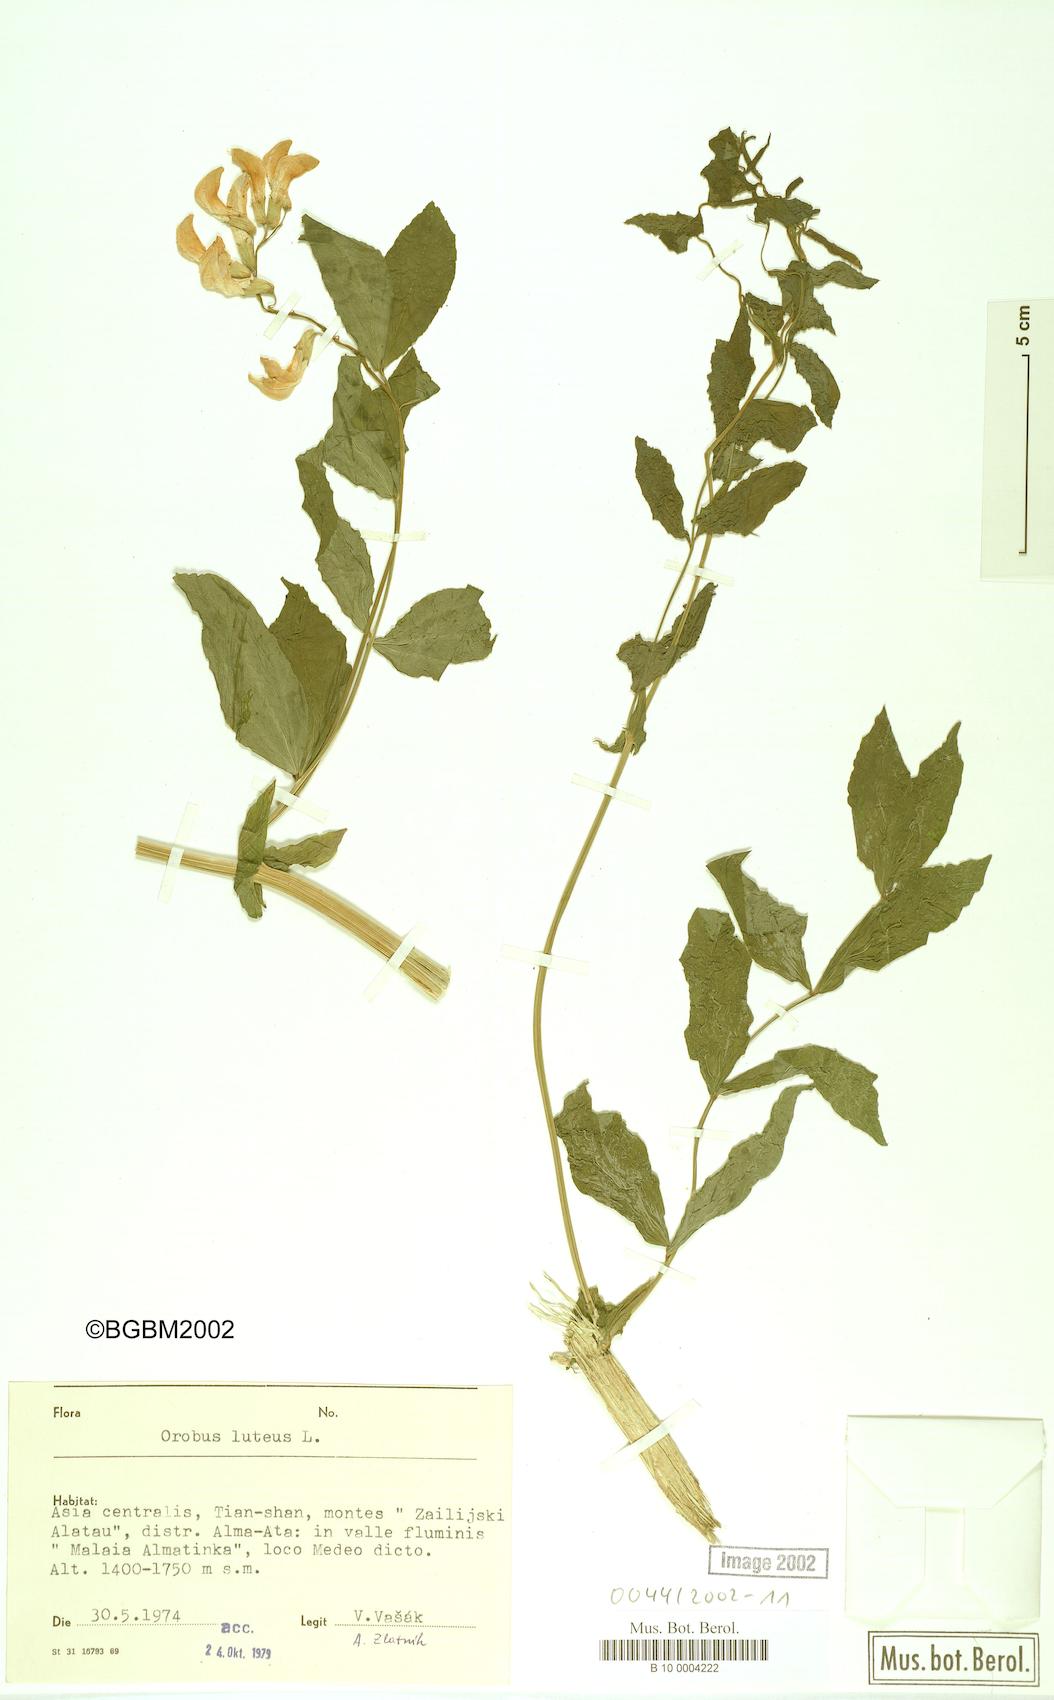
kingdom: Plantae
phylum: Tracheophyta
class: Magnoliopsida
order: Fabales
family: Fabaceae
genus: Lathyrus
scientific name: Lathyrus gmelinii
